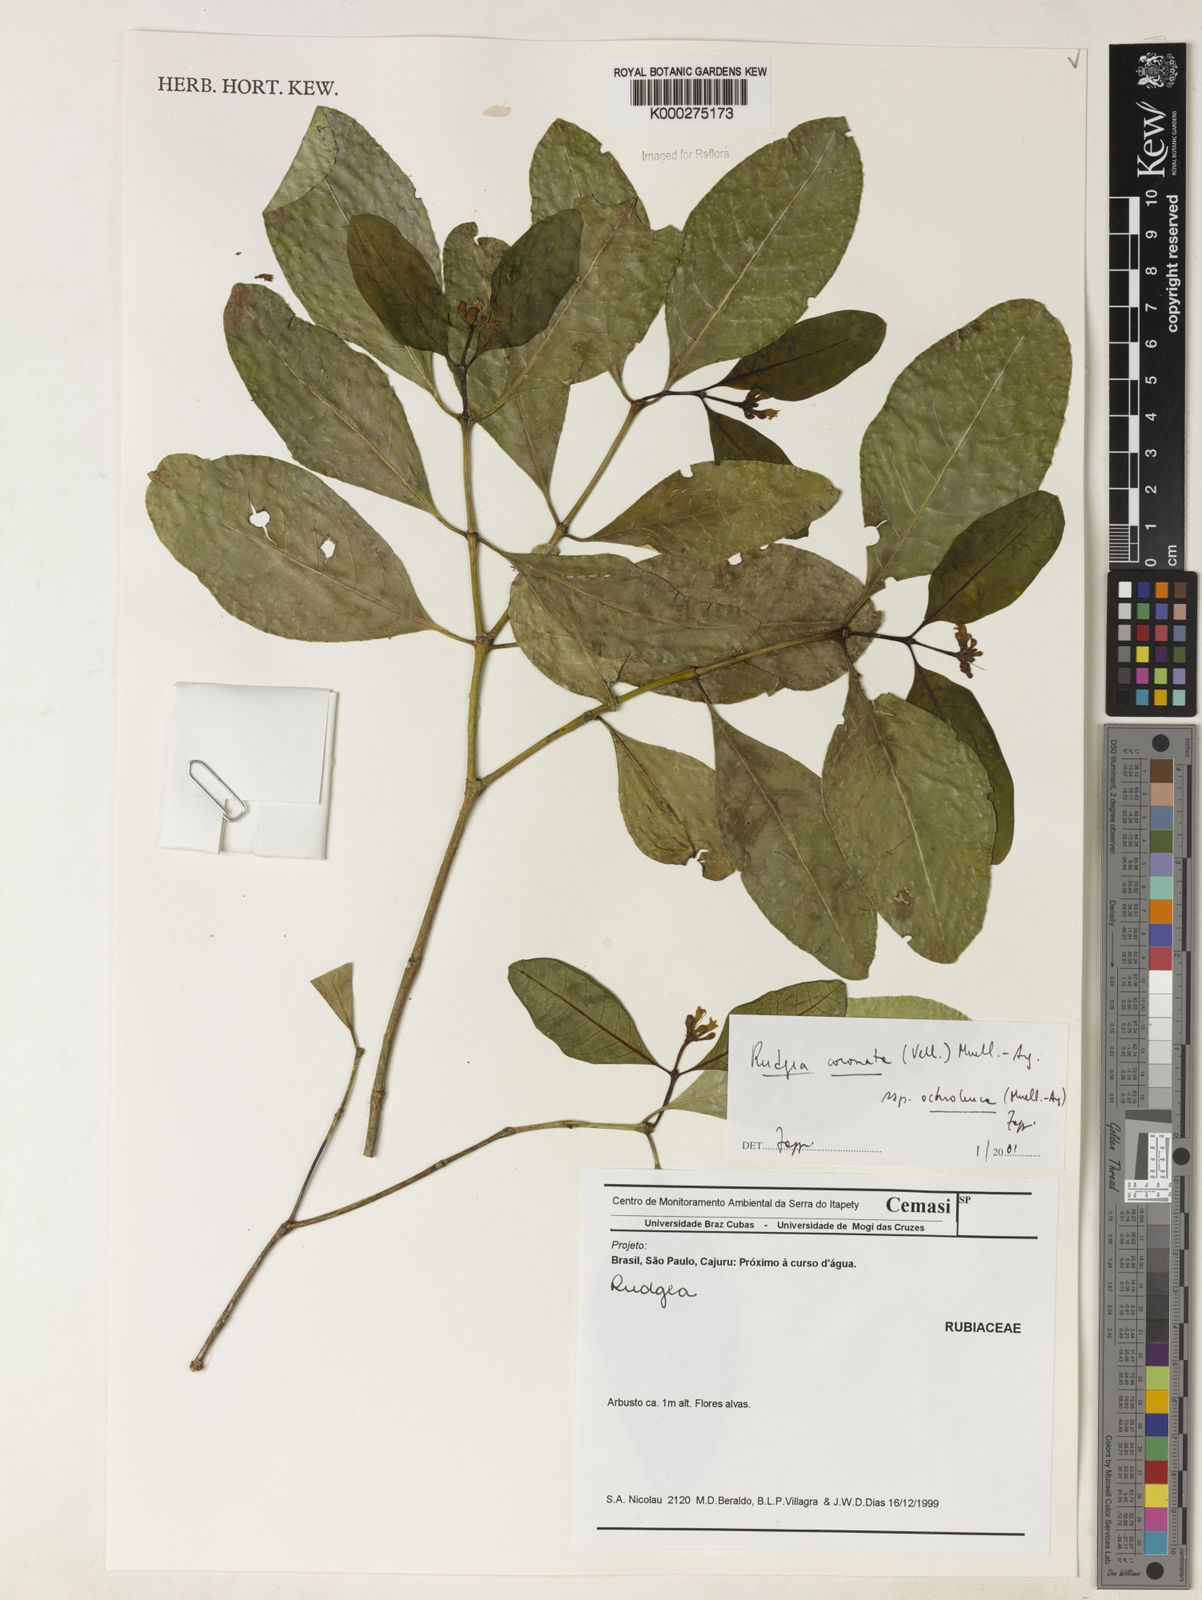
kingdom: Plantae
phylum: Tracheophyta
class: Magnoliopsida
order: Gentianales
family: Rubiaceae
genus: Rudgea
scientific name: Rudgea coronata
